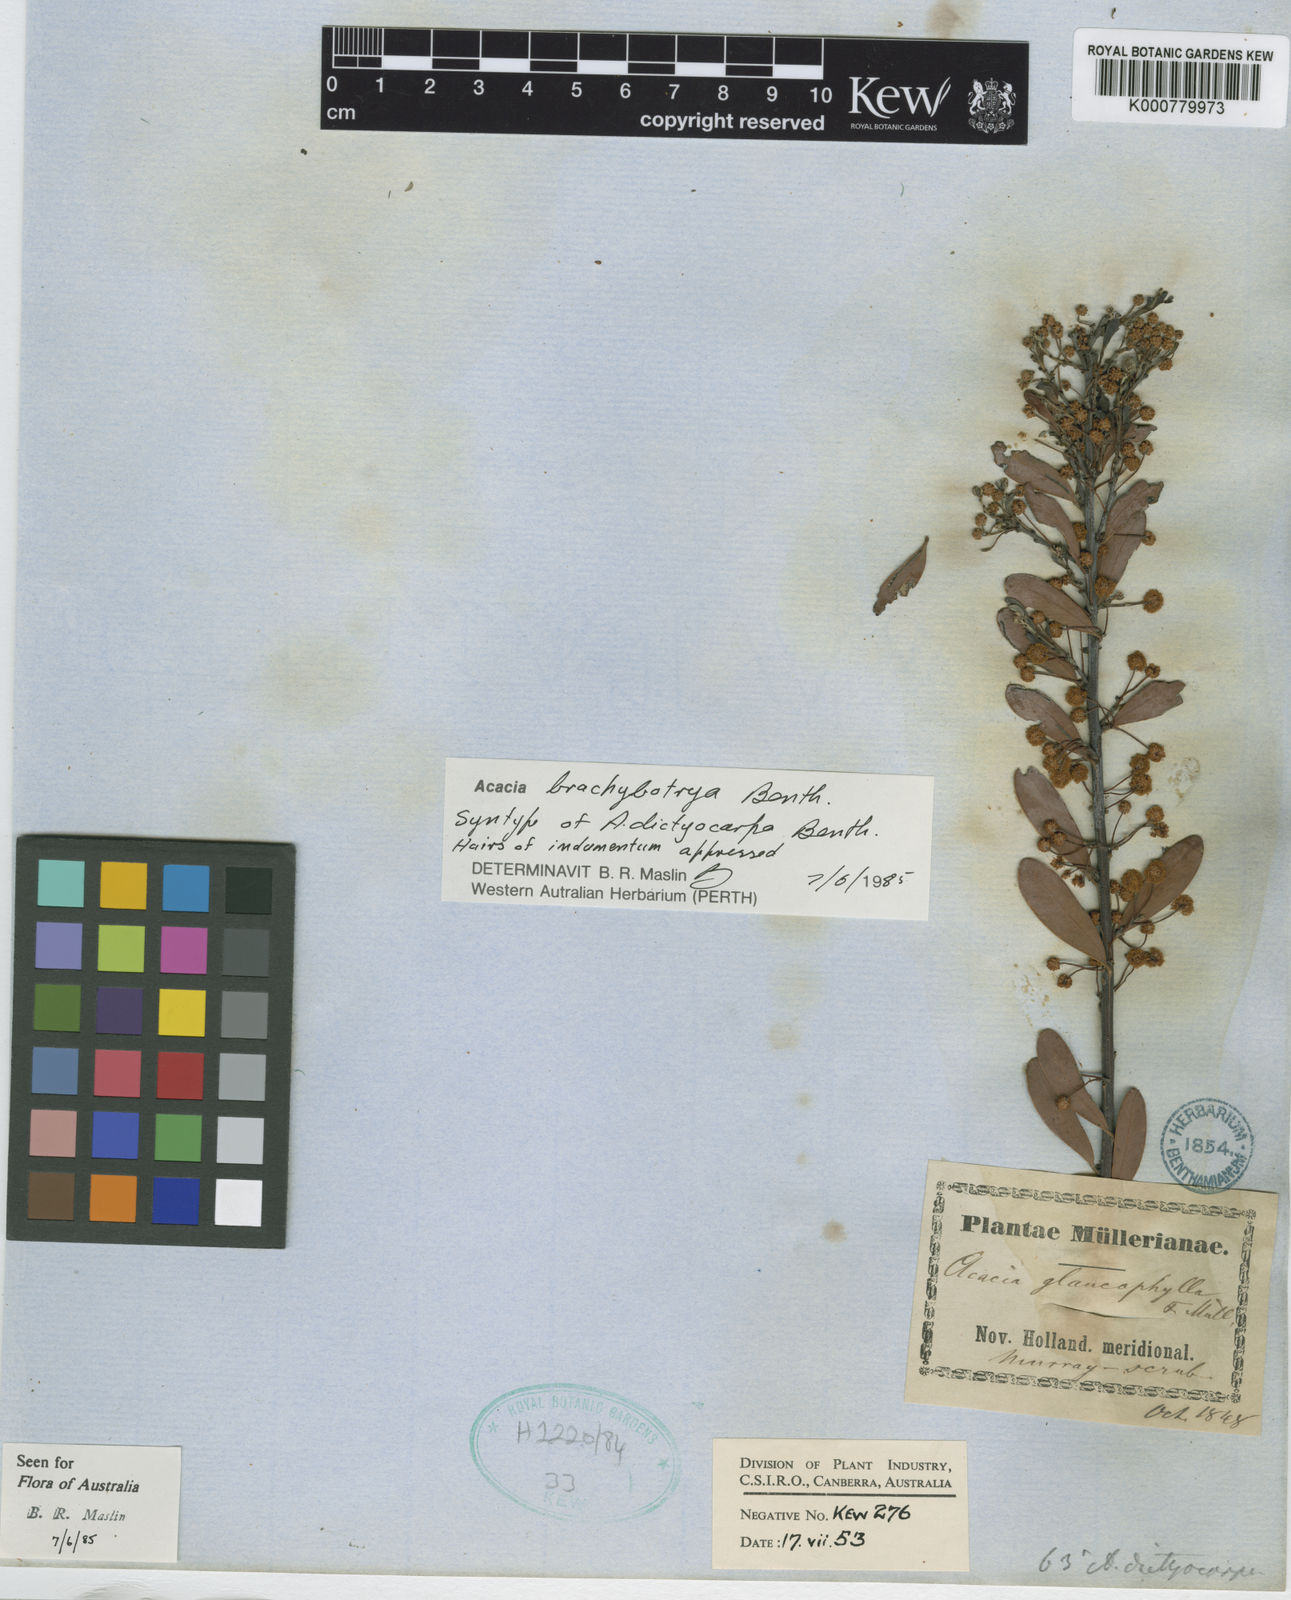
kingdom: Plantae
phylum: Tracheophyta
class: Magnoliopsida
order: Fabales
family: Fabaceae
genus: Acacia
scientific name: Acacia brachybotrya
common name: Grey mulga
